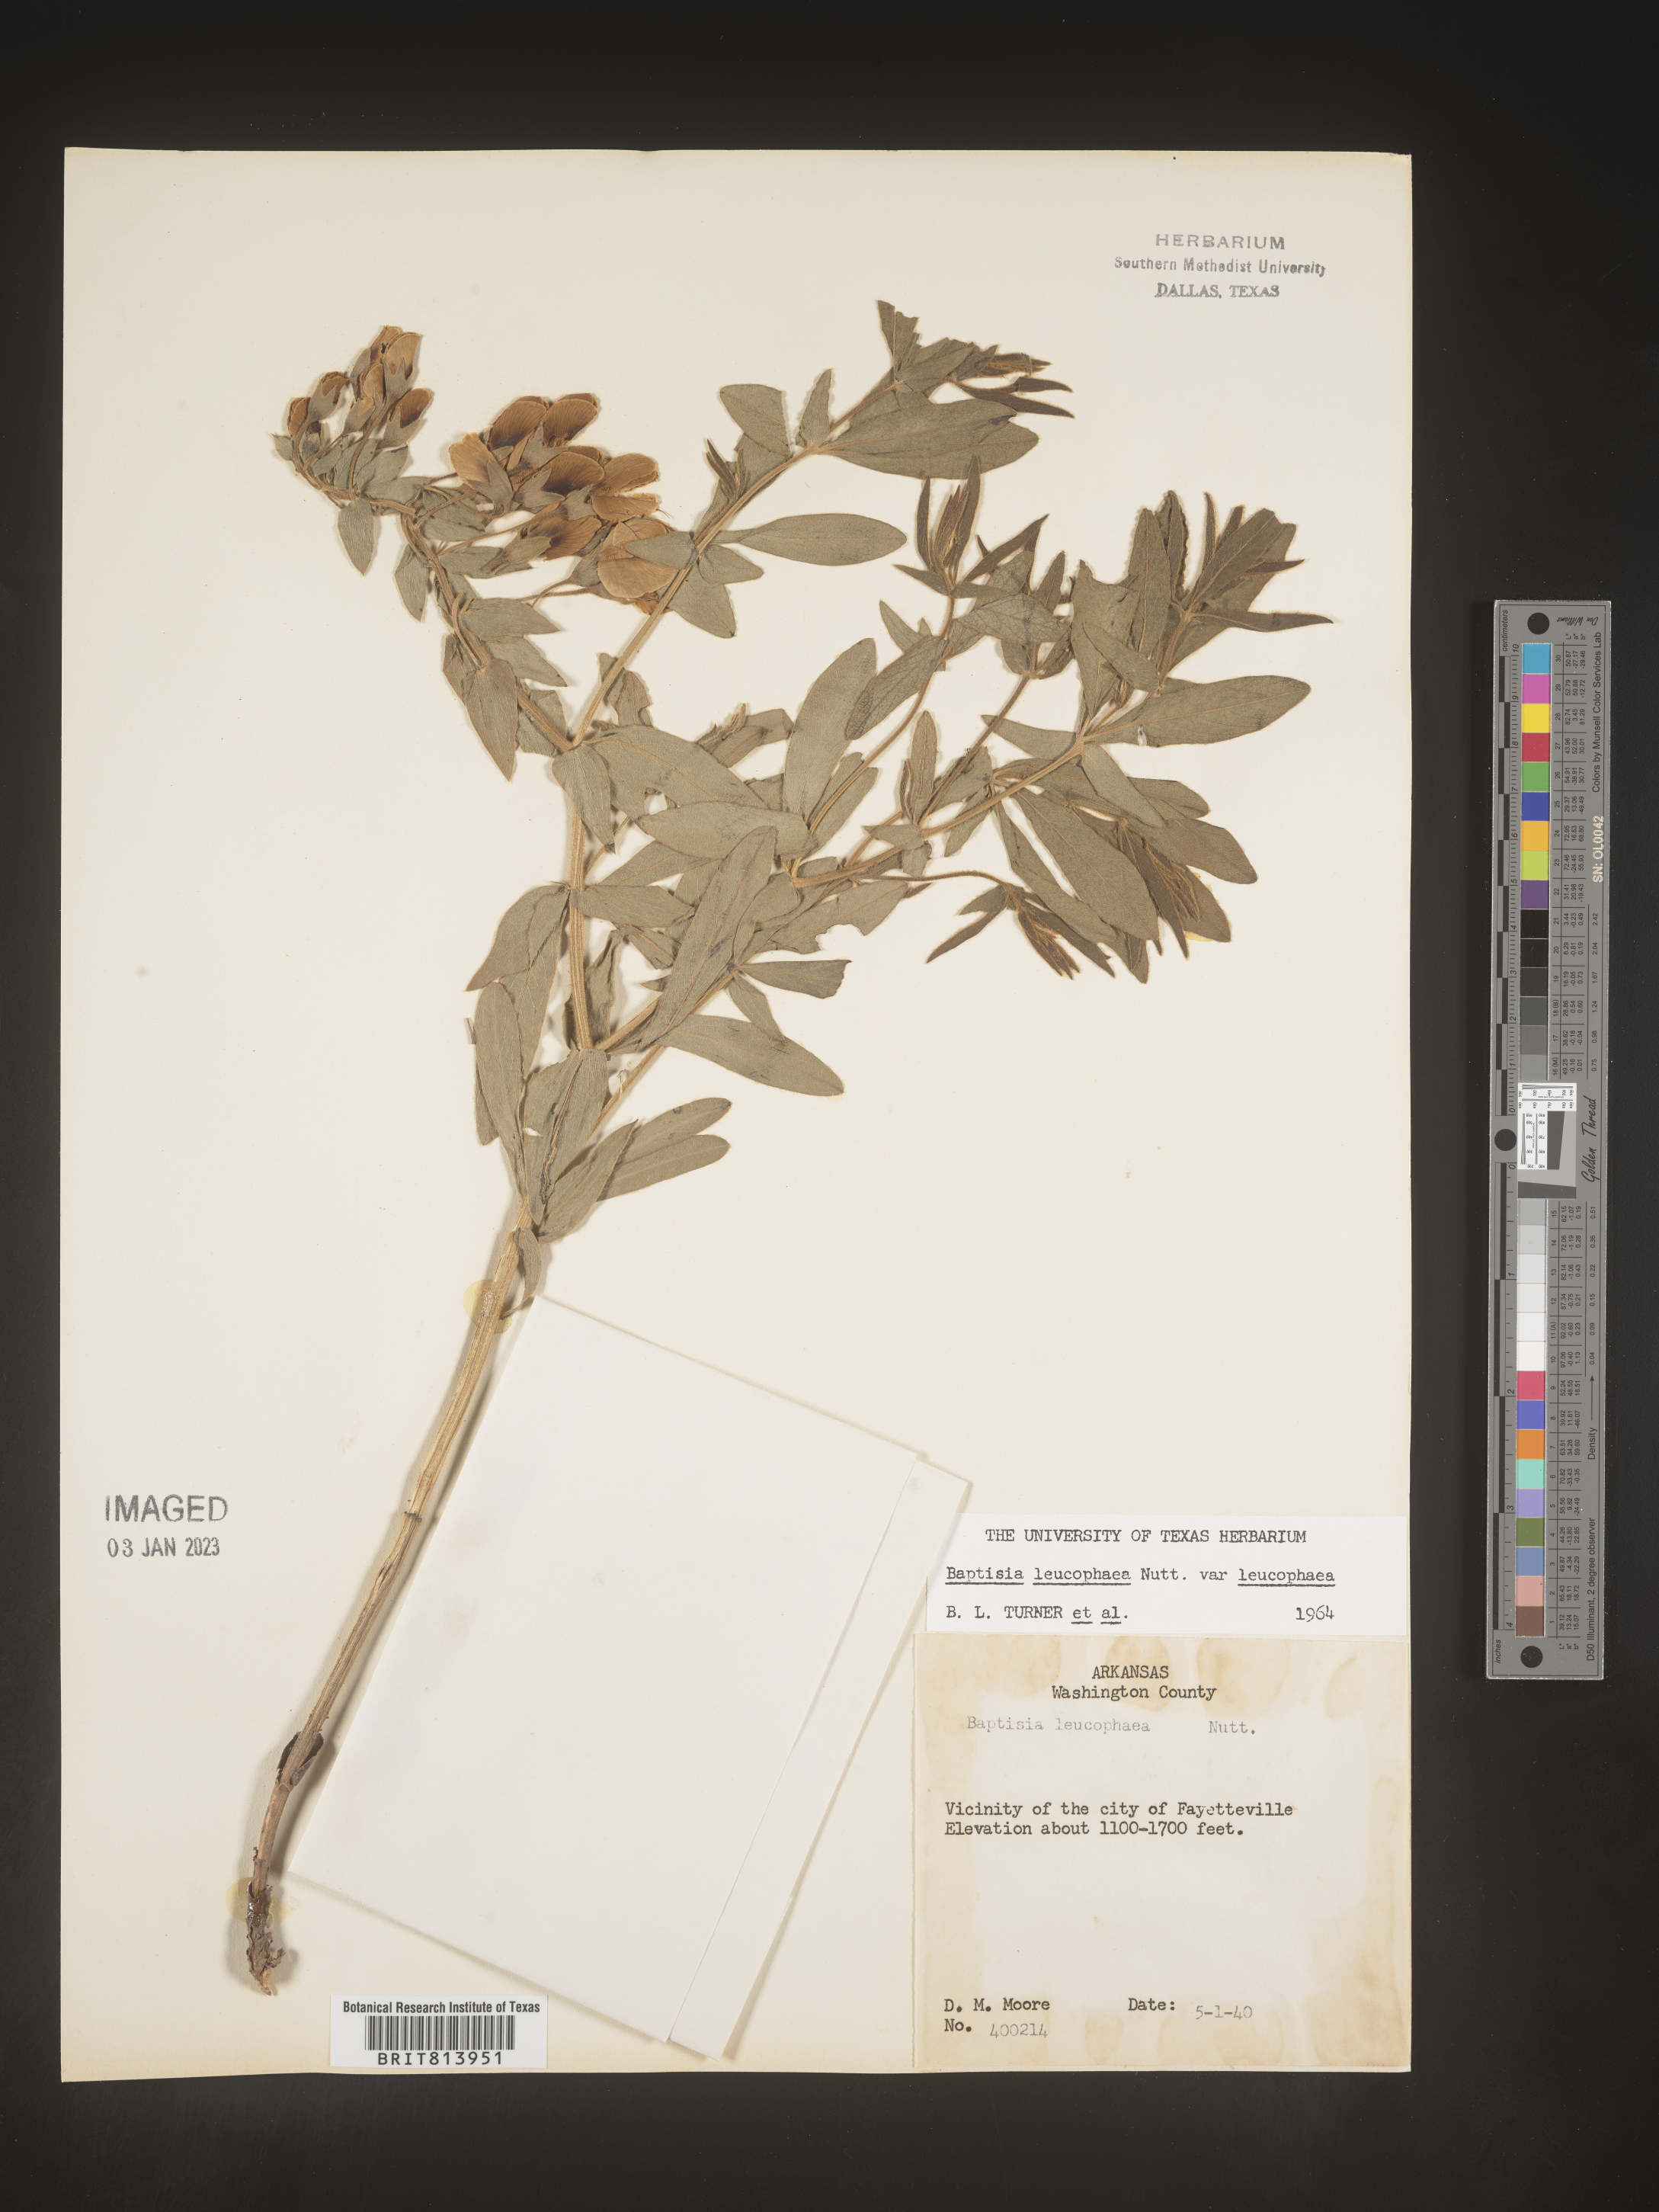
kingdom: Plantae
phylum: Tracheophyta
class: Magnoliopsida
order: Fabales
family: Fabaceae
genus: Baptisia
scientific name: Baptisia bracteata
